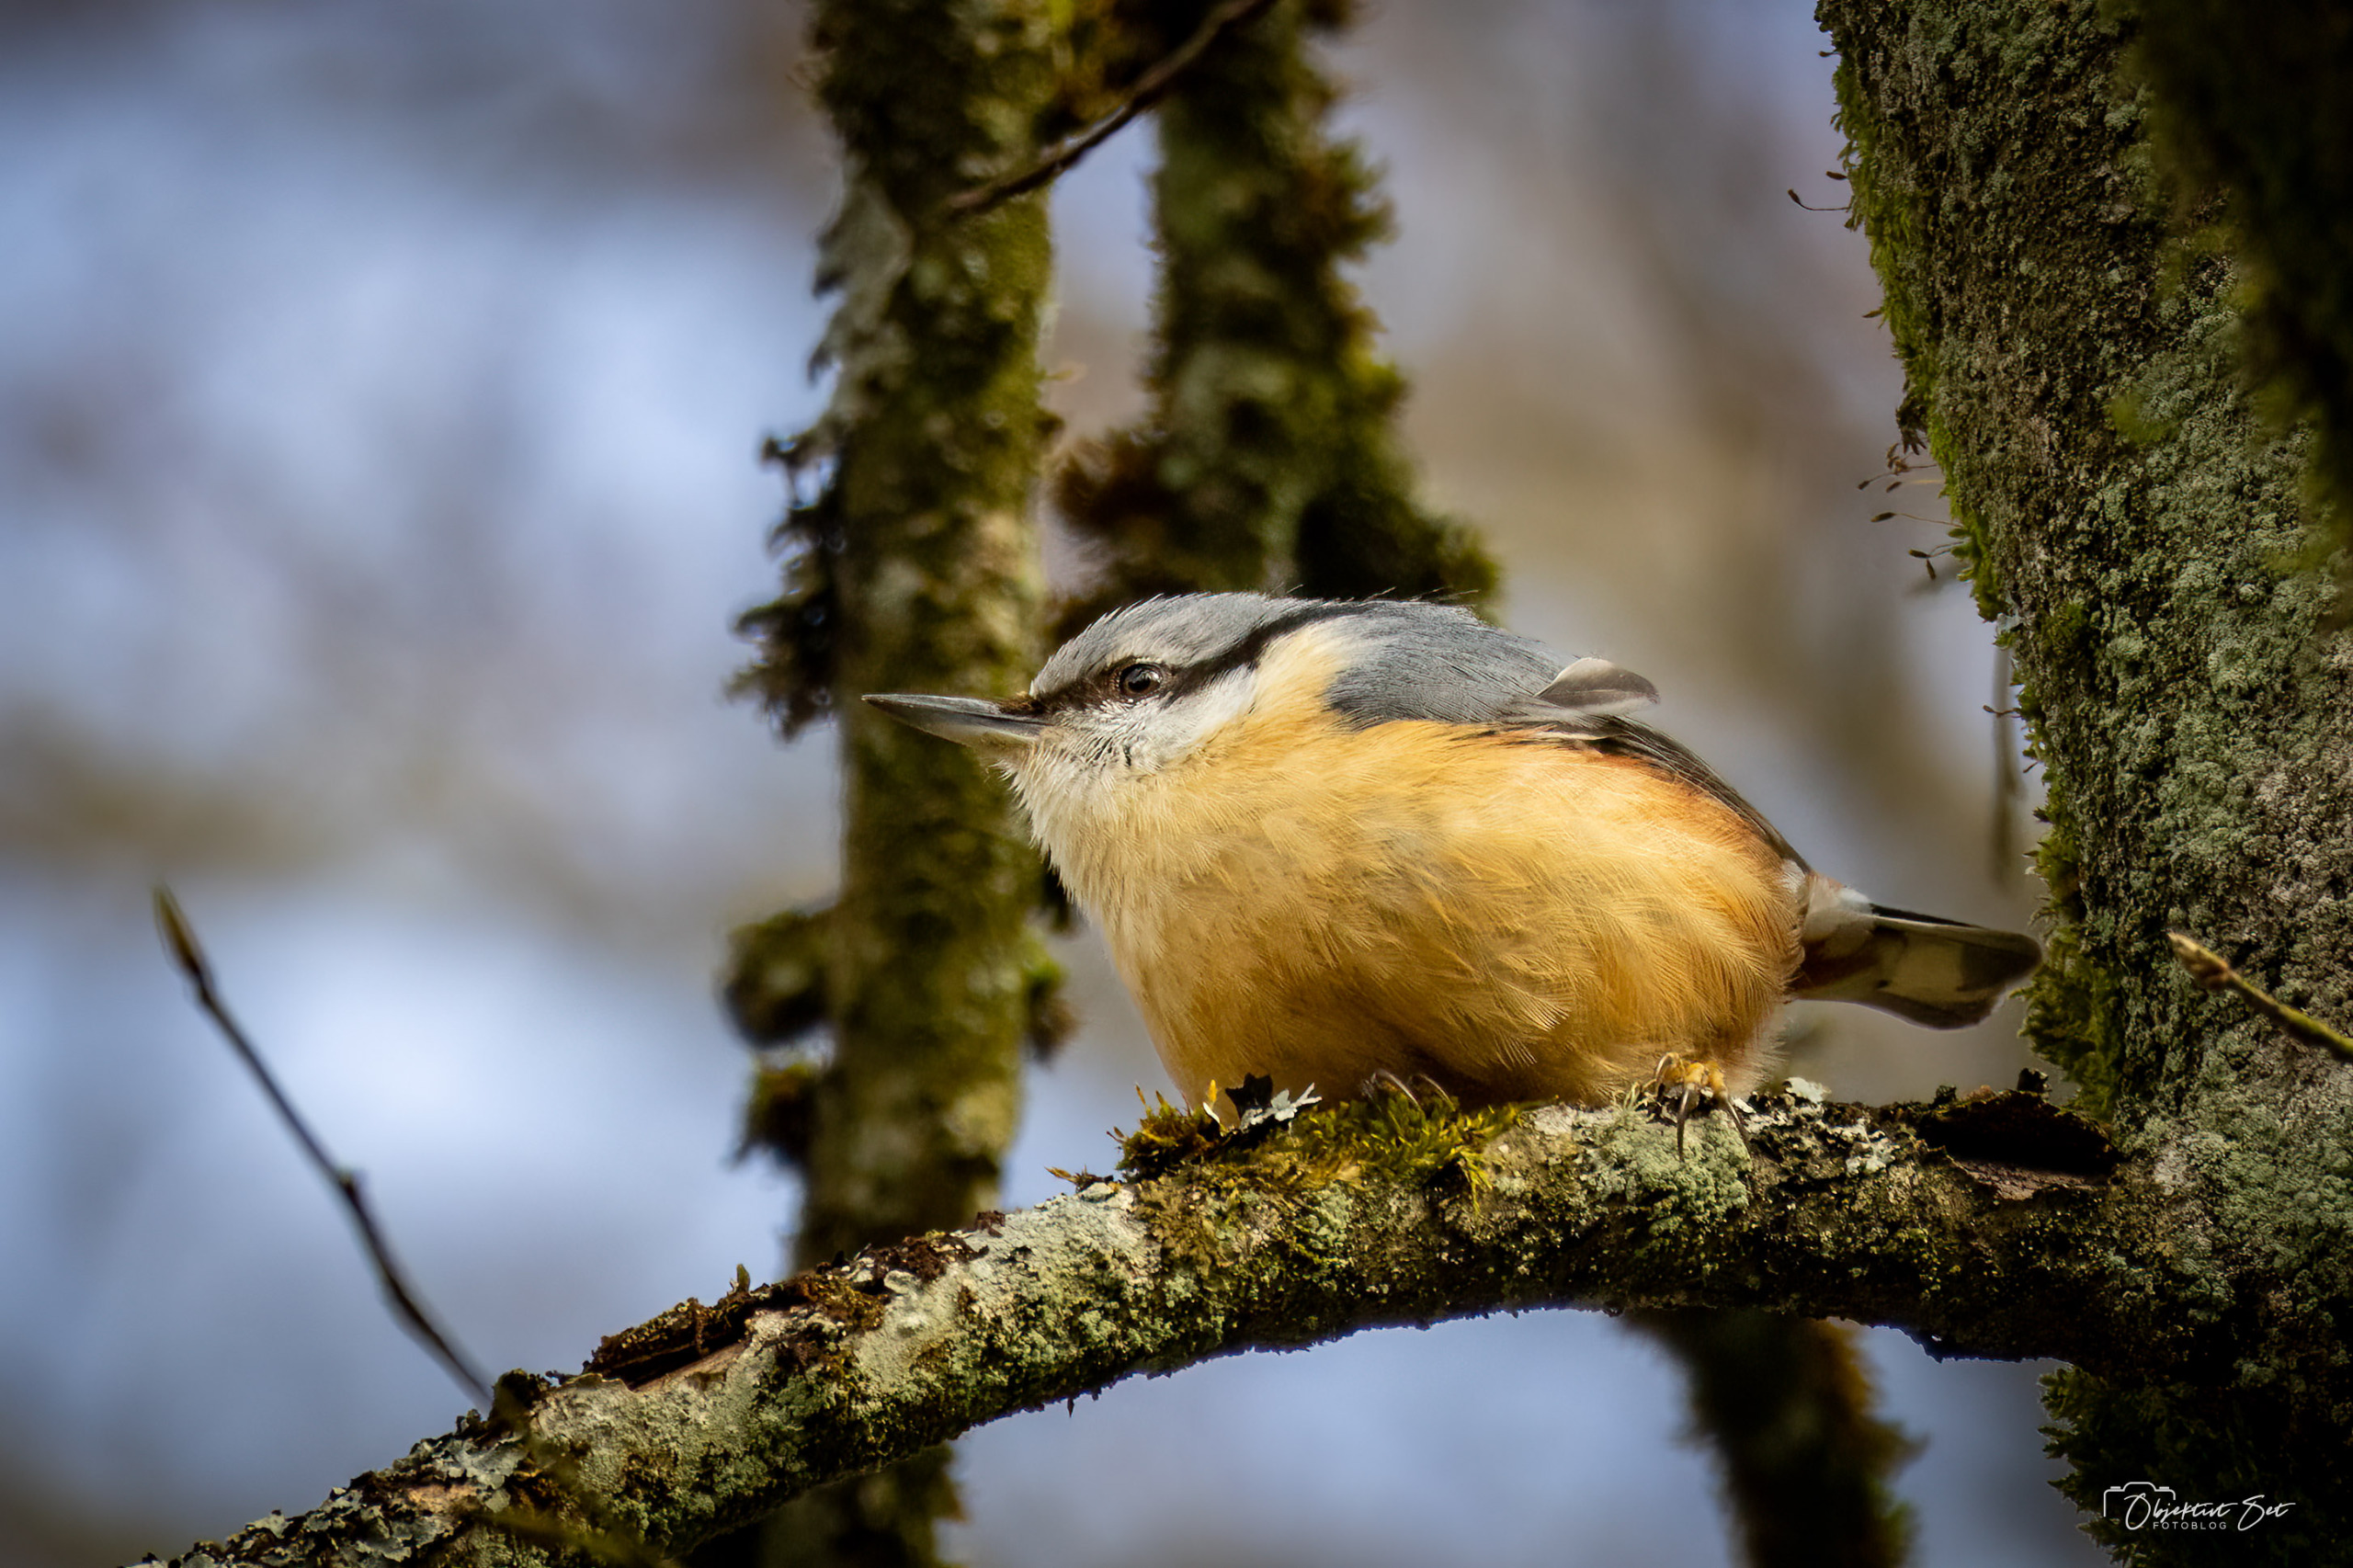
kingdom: Animalia
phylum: Chordata
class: Aves
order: Passeriformes
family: Sittidae
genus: Sitta
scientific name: Sitta europaea
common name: Spætmejse
